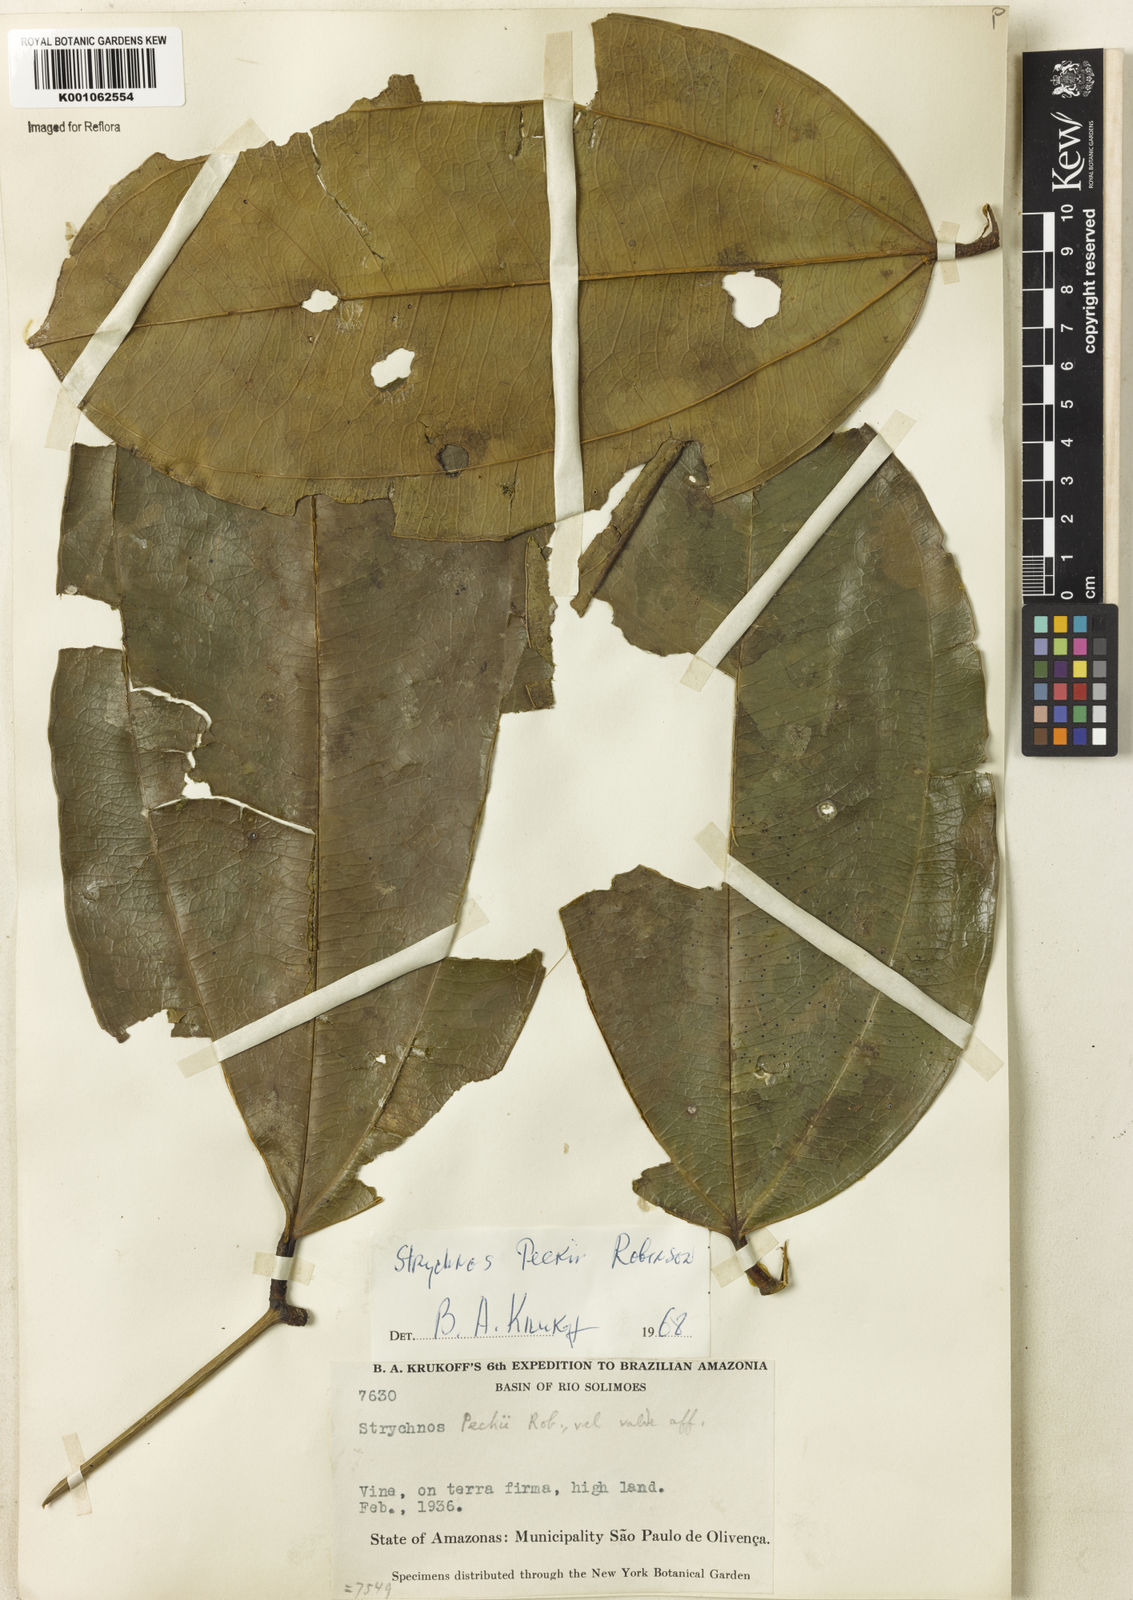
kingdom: Plantae
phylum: Tracheophyta
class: Magnoliopsida
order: Gentianales
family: Loganiaceae
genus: Strychnos
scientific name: Strychnos peckii
